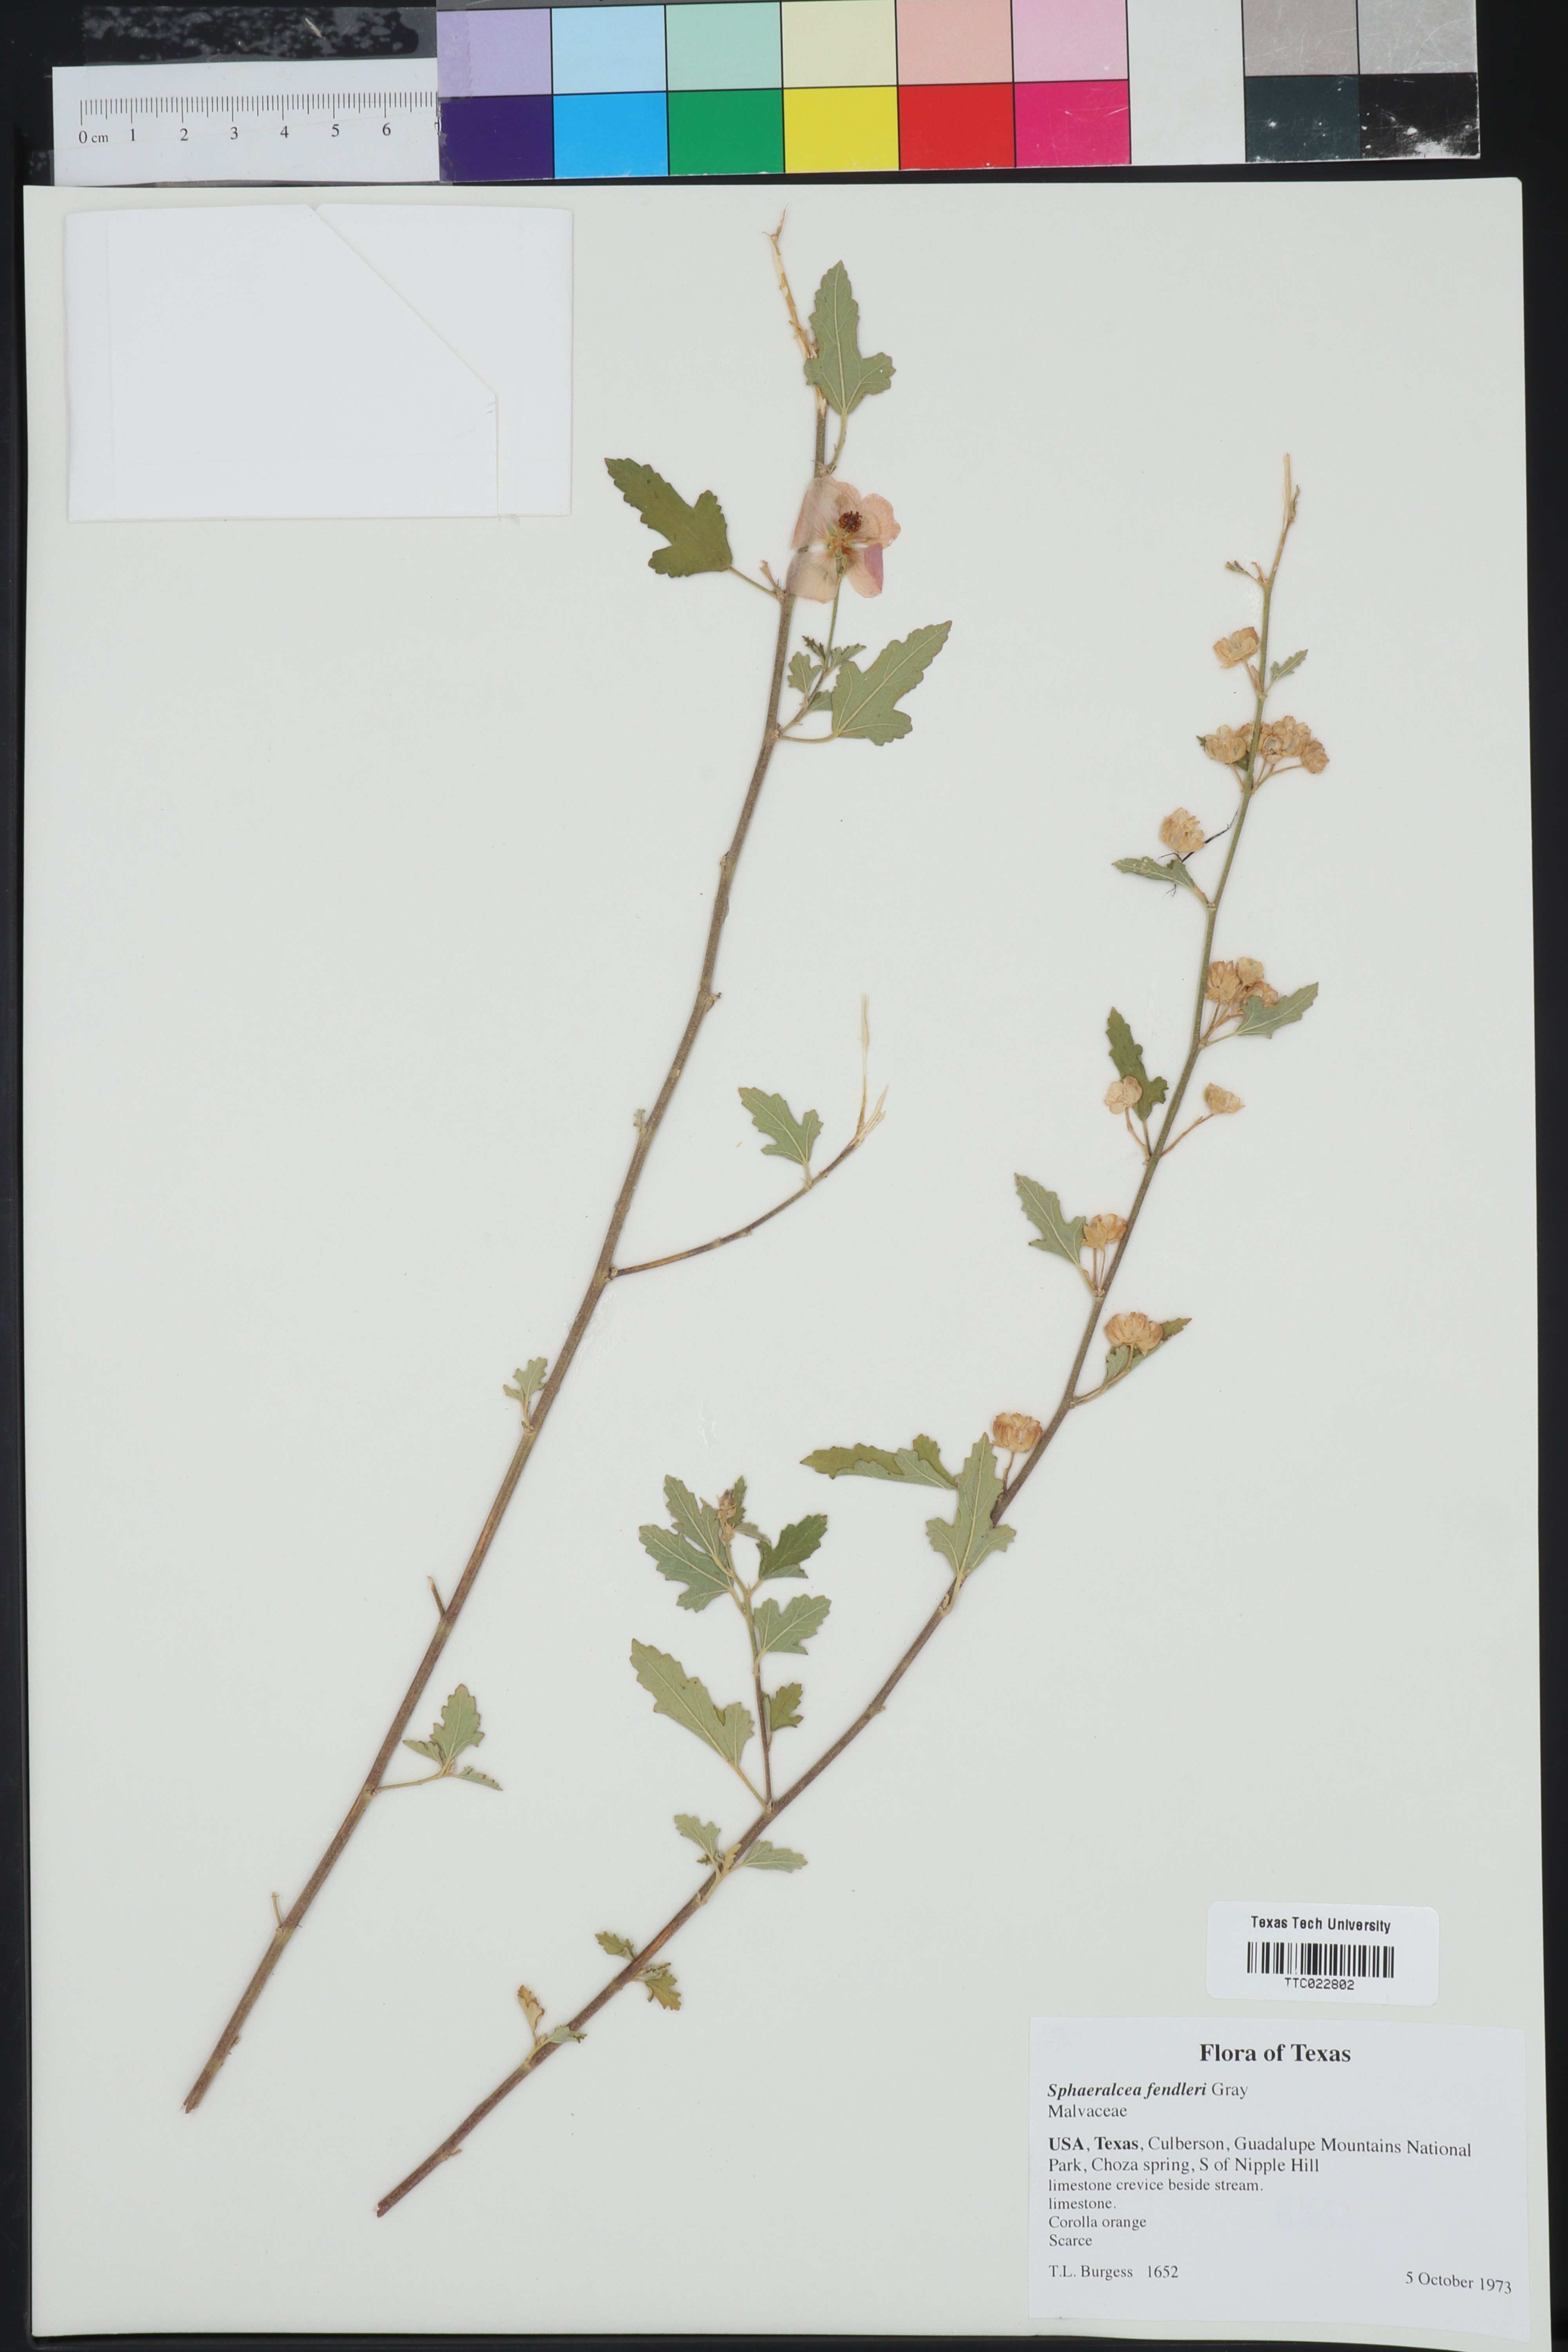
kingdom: Plantae
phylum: Tracheophyta
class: Magnoliopsida
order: Malvales
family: Malvaceae
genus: Sphaeralcea
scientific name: Sphaeralcea fendleri
